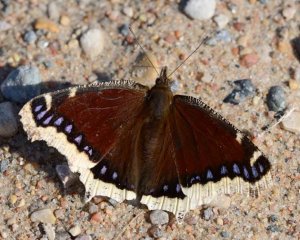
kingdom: Animalia
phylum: Arthropoda
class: Insecta
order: Lepidoptera
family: Nymphalidae
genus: Nymphalis
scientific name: Nymphalis antiopa
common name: Mourning Cloak
